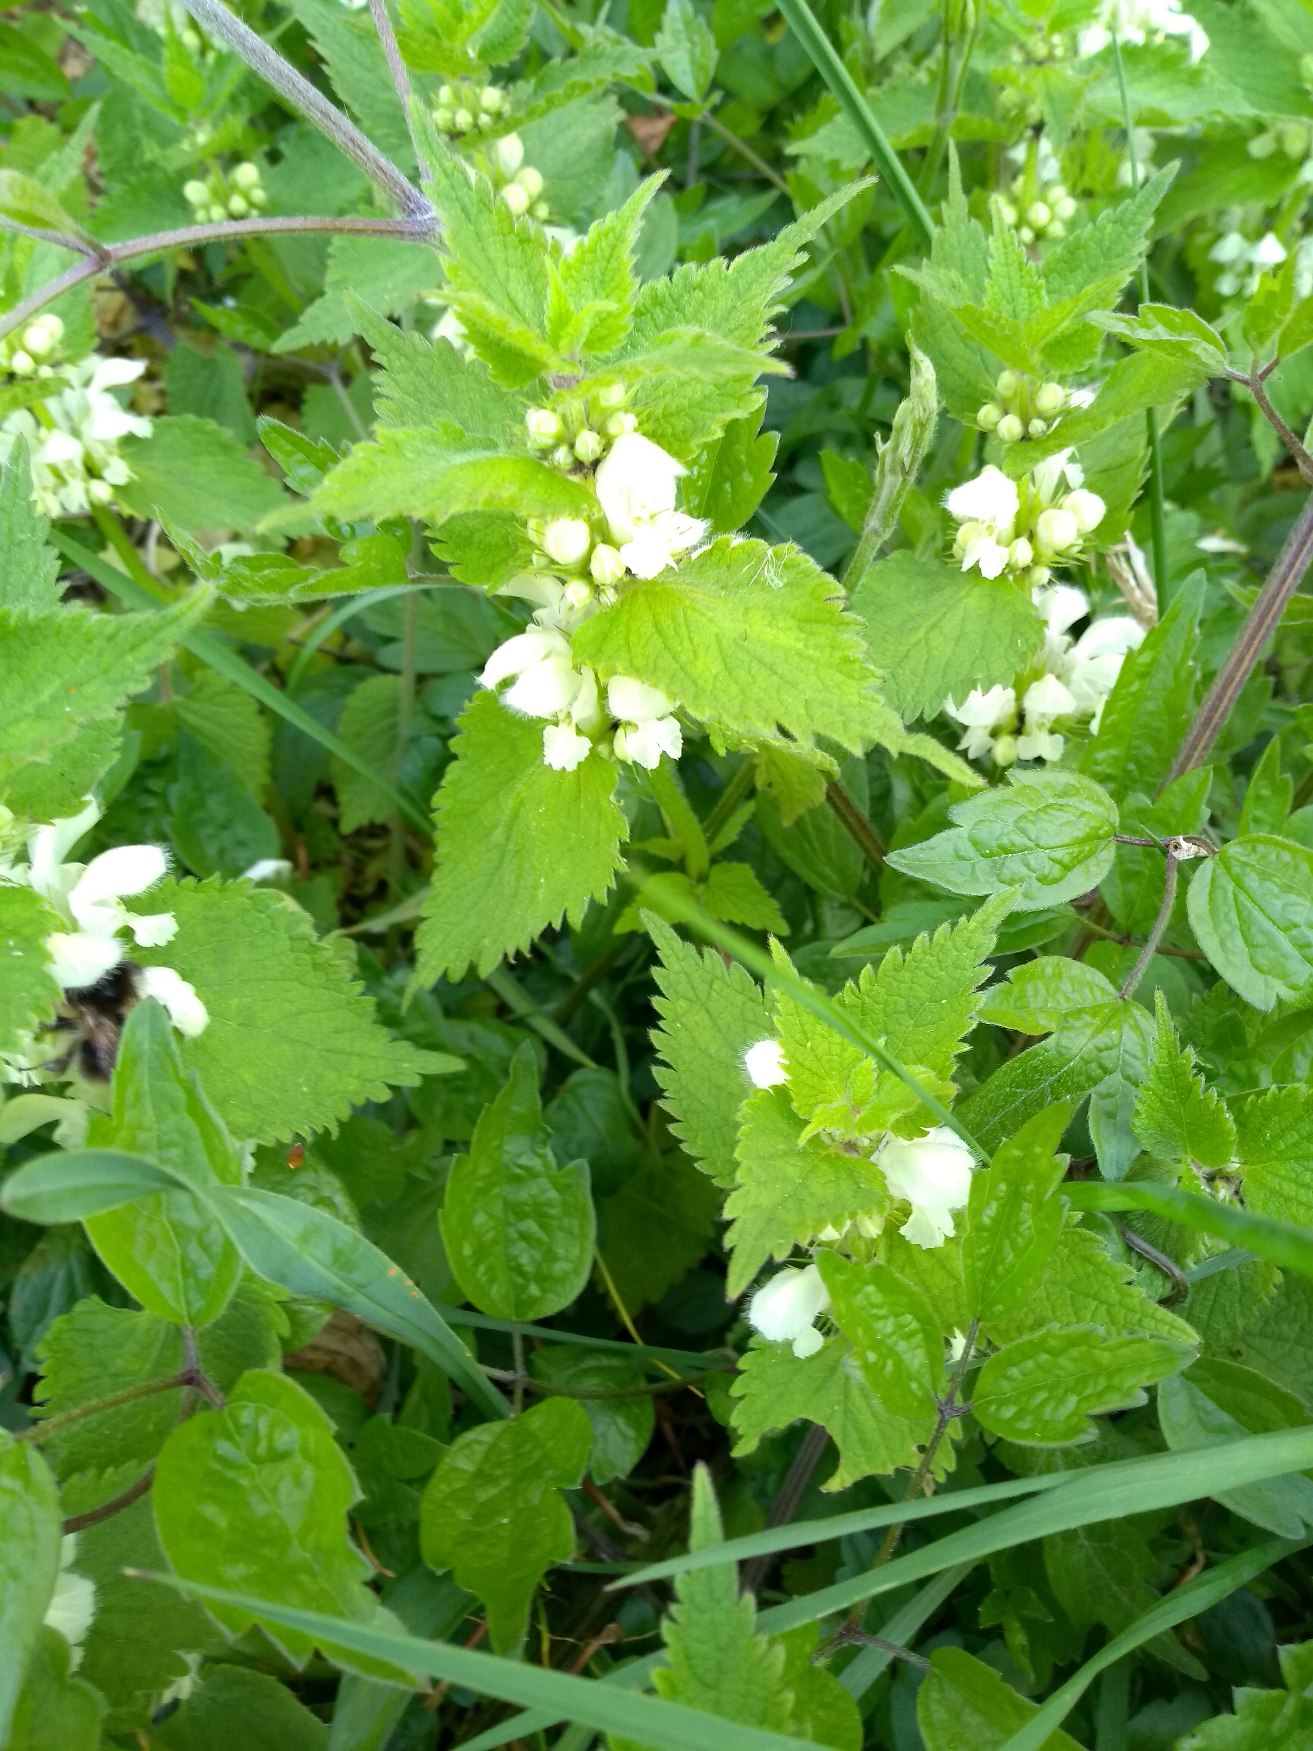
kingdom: Plantae
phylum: Tracheophyta
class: Magnoliopsida
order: Lamiales
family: Lamiaceae
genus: Lamium
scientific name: Lamium album
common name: Døvnælde
